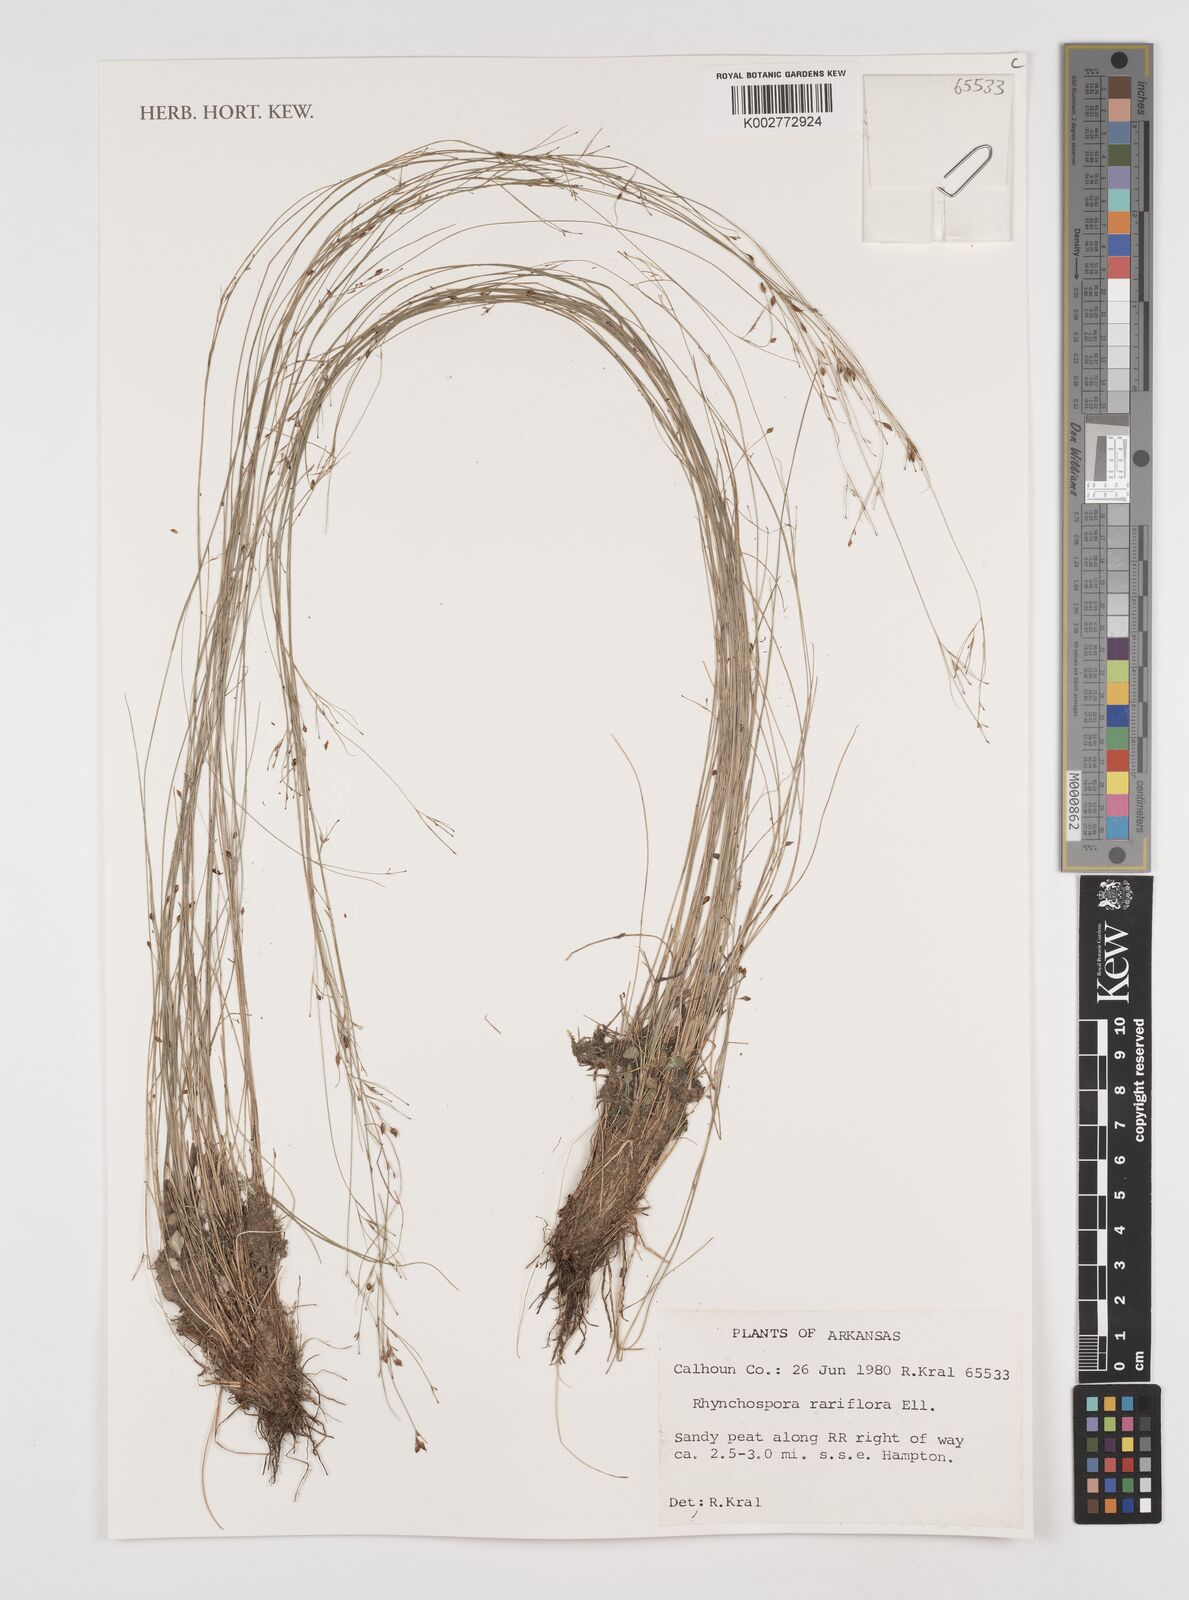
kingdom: Plantae
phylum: Tracheophyta
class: Liliopsida
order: Poales
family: Cyperaceae
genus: Rhynchospora
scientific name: Rhynchospora rariflora
